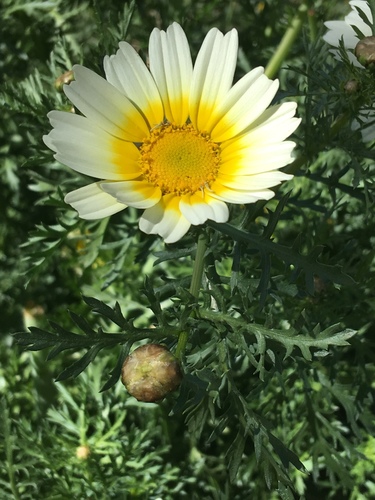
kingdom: Plantae
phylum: Tracheophyta
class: Magnoliopsida
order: Asterales
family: Asteraceae
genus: Glebionis
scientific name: Glebionis coronaria
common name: Crowndaisy
